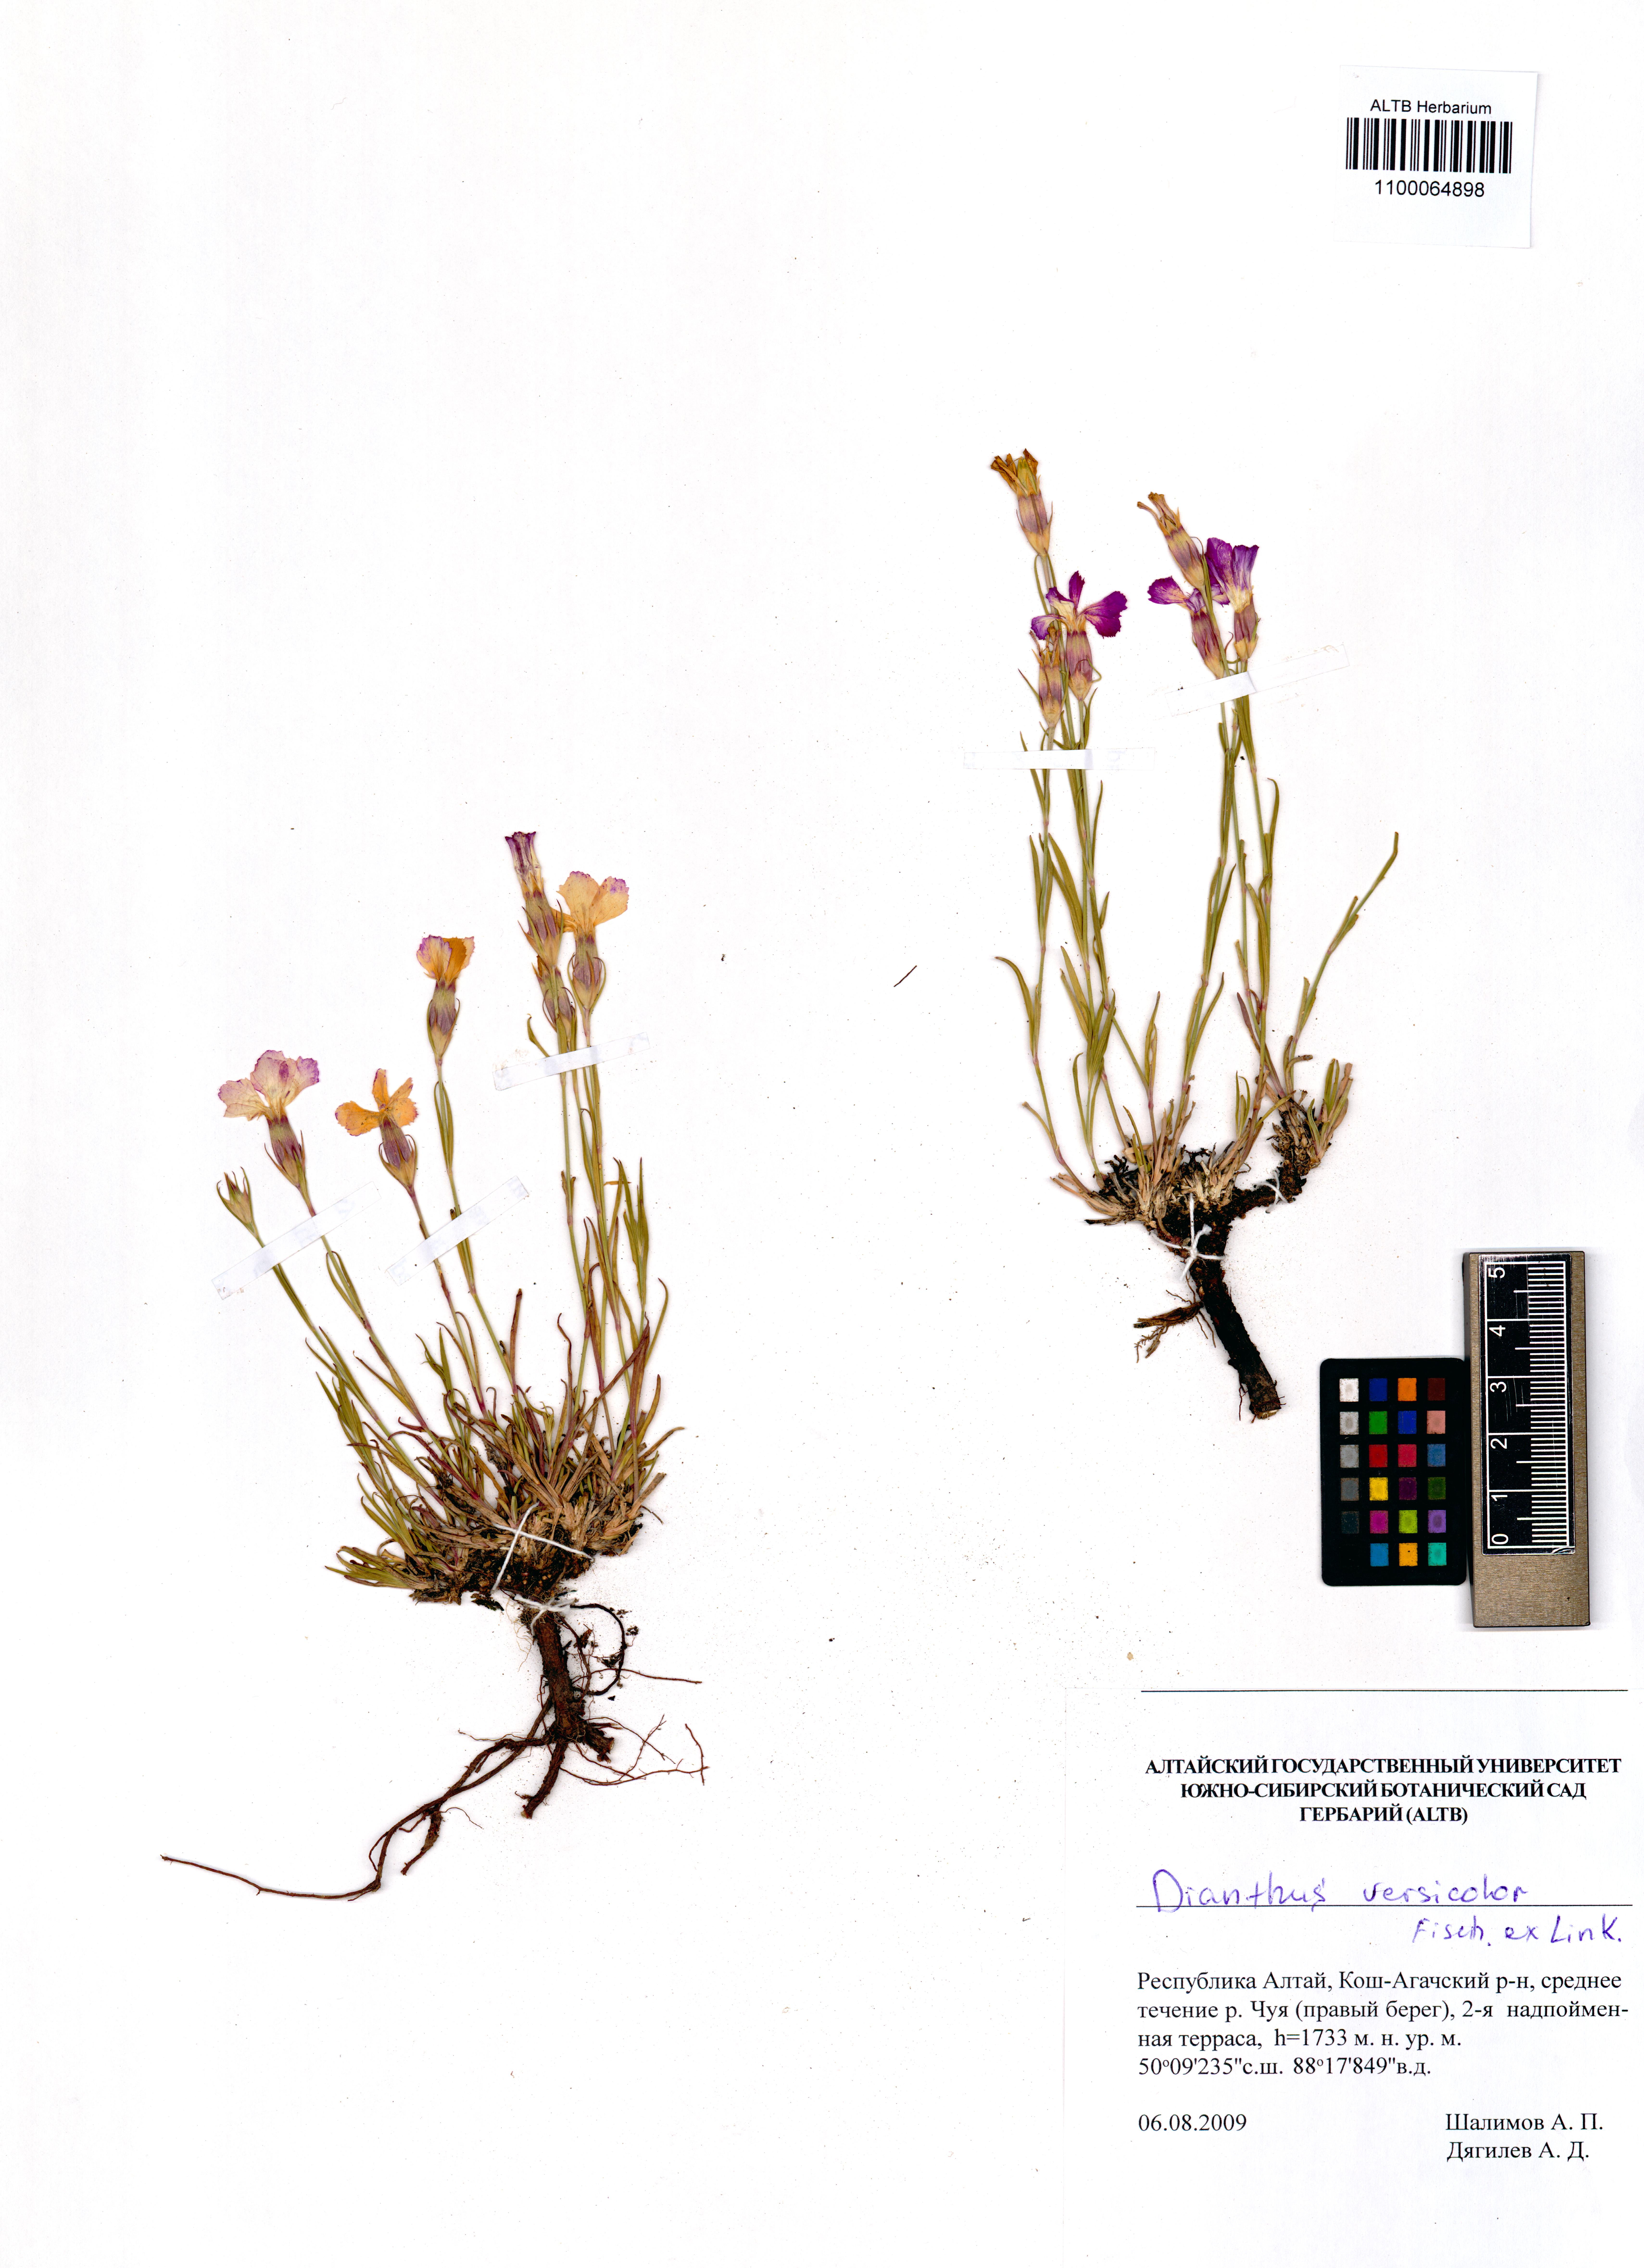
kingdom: Plantae
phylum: Tracheophyta
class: Magnoliopsida
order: Caryophyllales
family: Caryophyllaceae
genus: Dianthus
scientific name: Dianthus chinensis
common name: Rainbow pink
